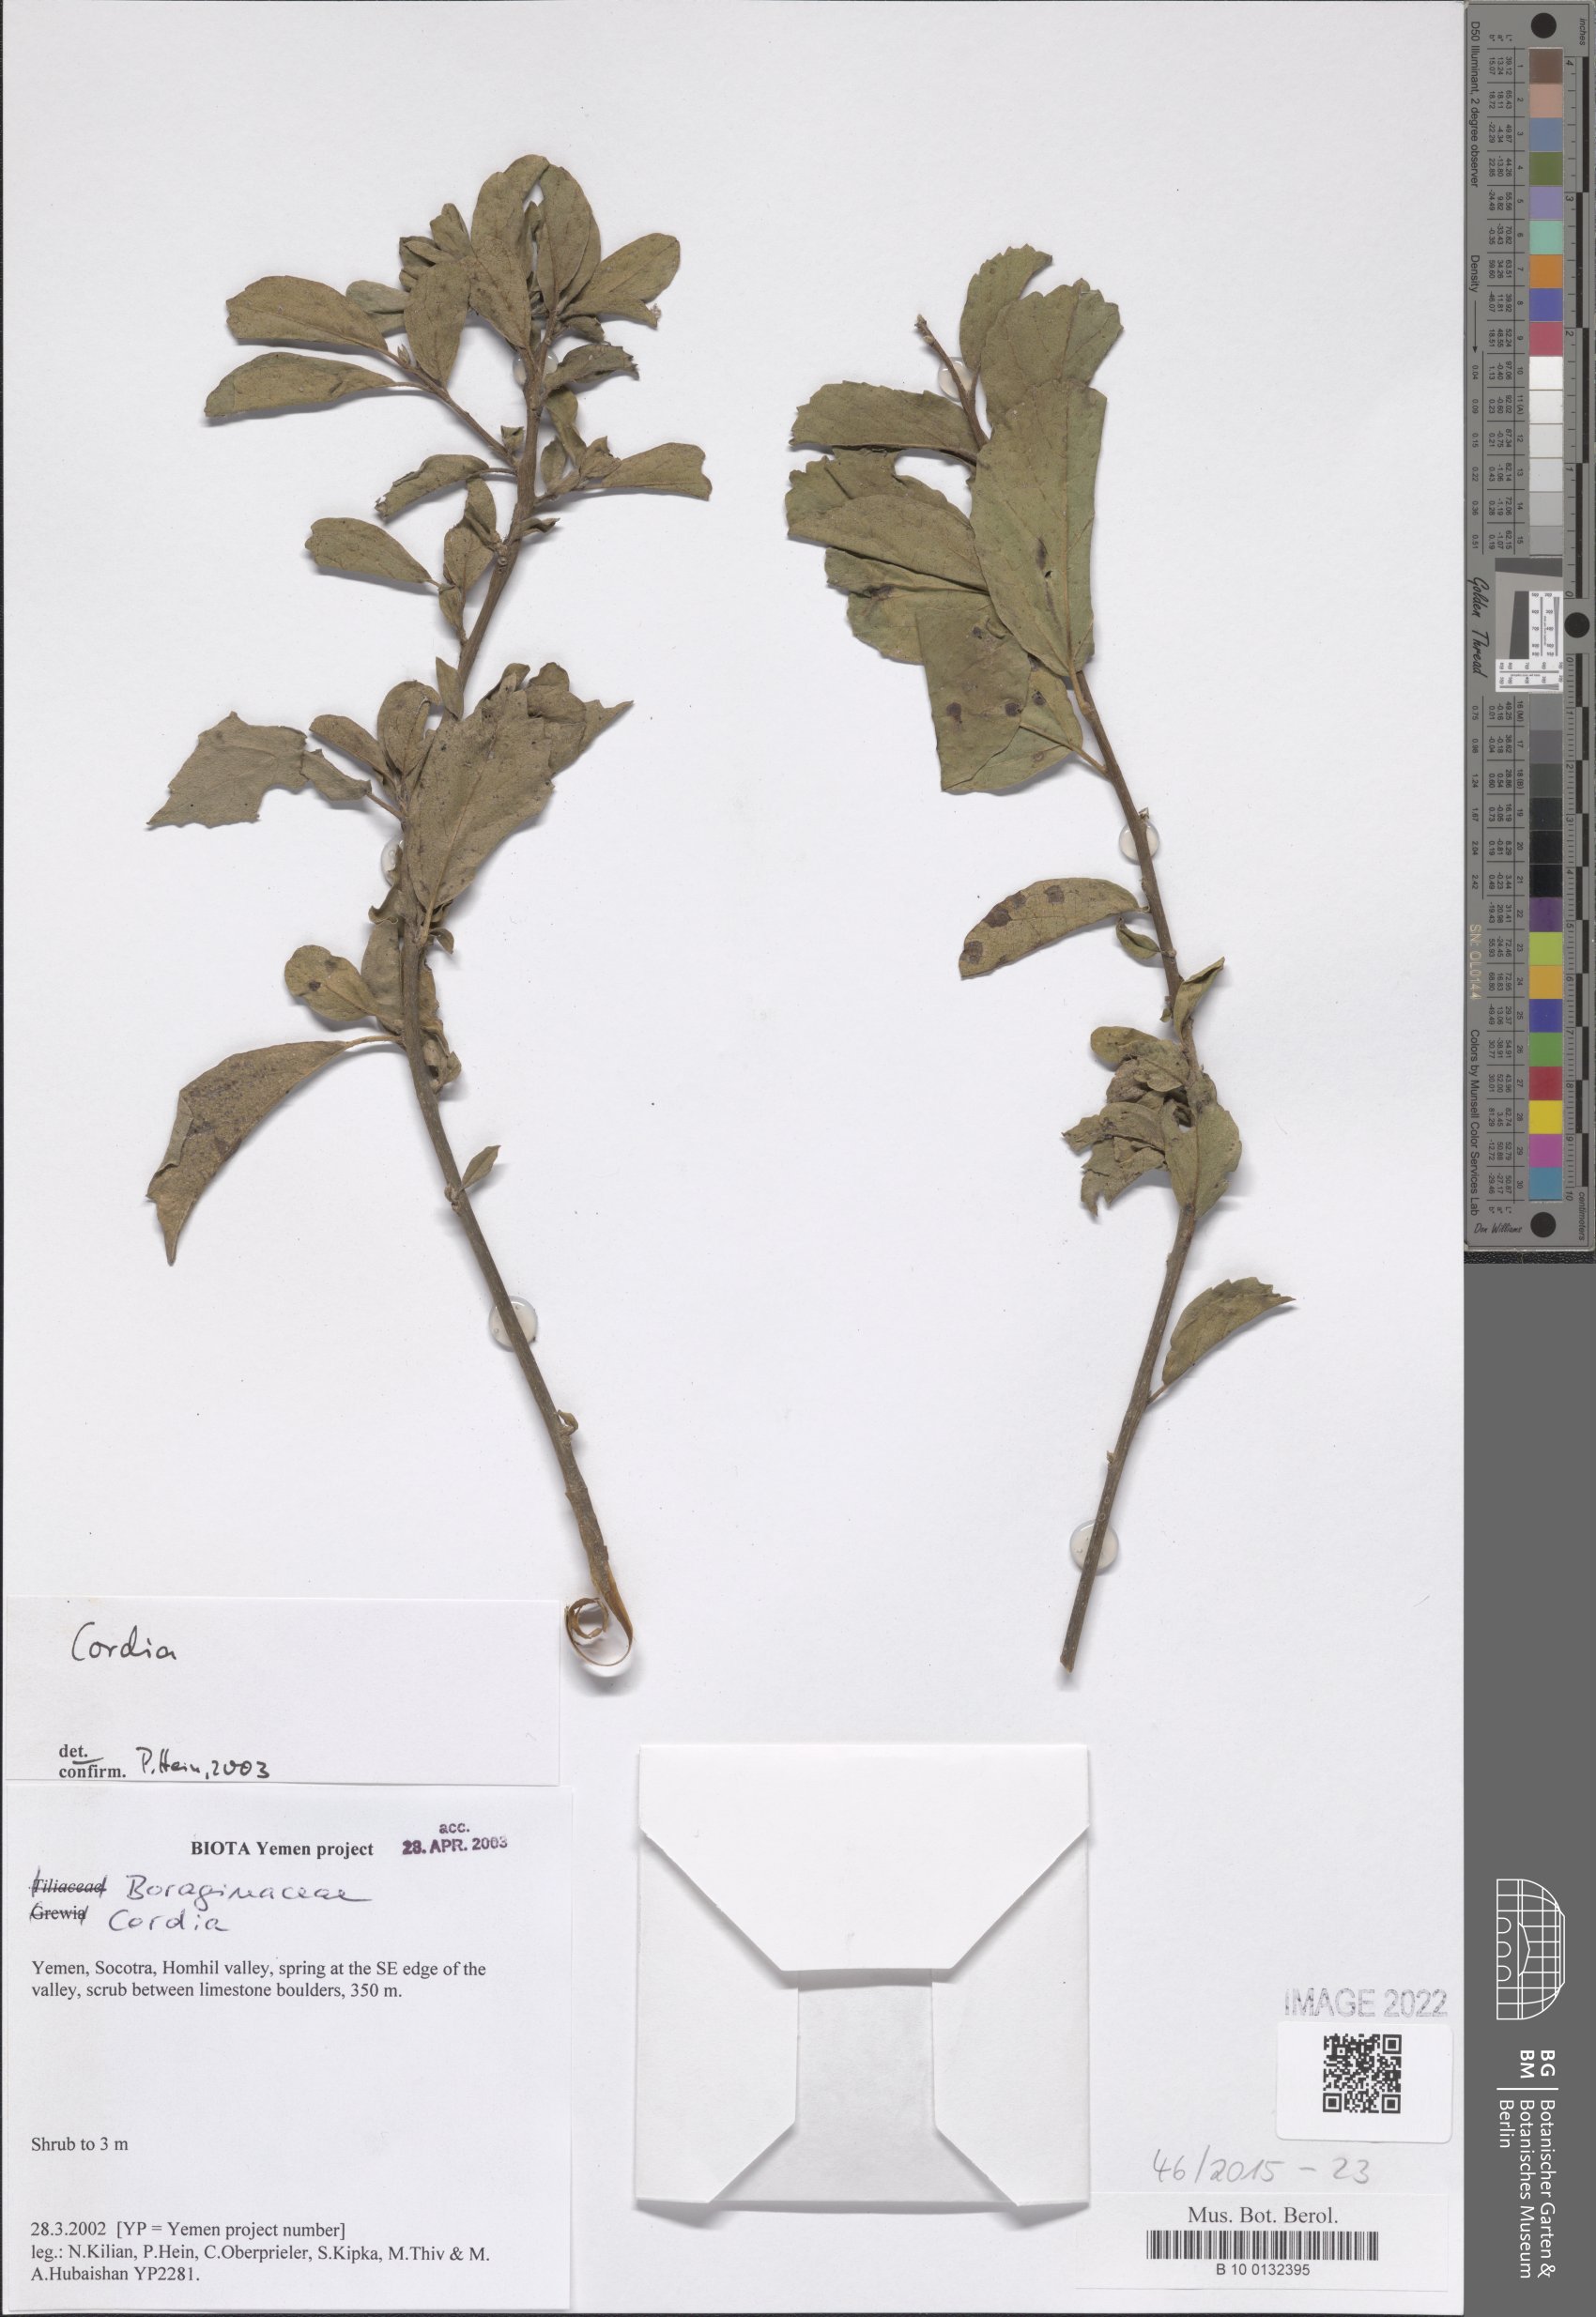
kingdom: Plantae
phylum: Tracheophyta
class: Magnoliopsida
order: Boraginales
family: Cordiaceae
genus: Cordia
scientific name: Cordia
